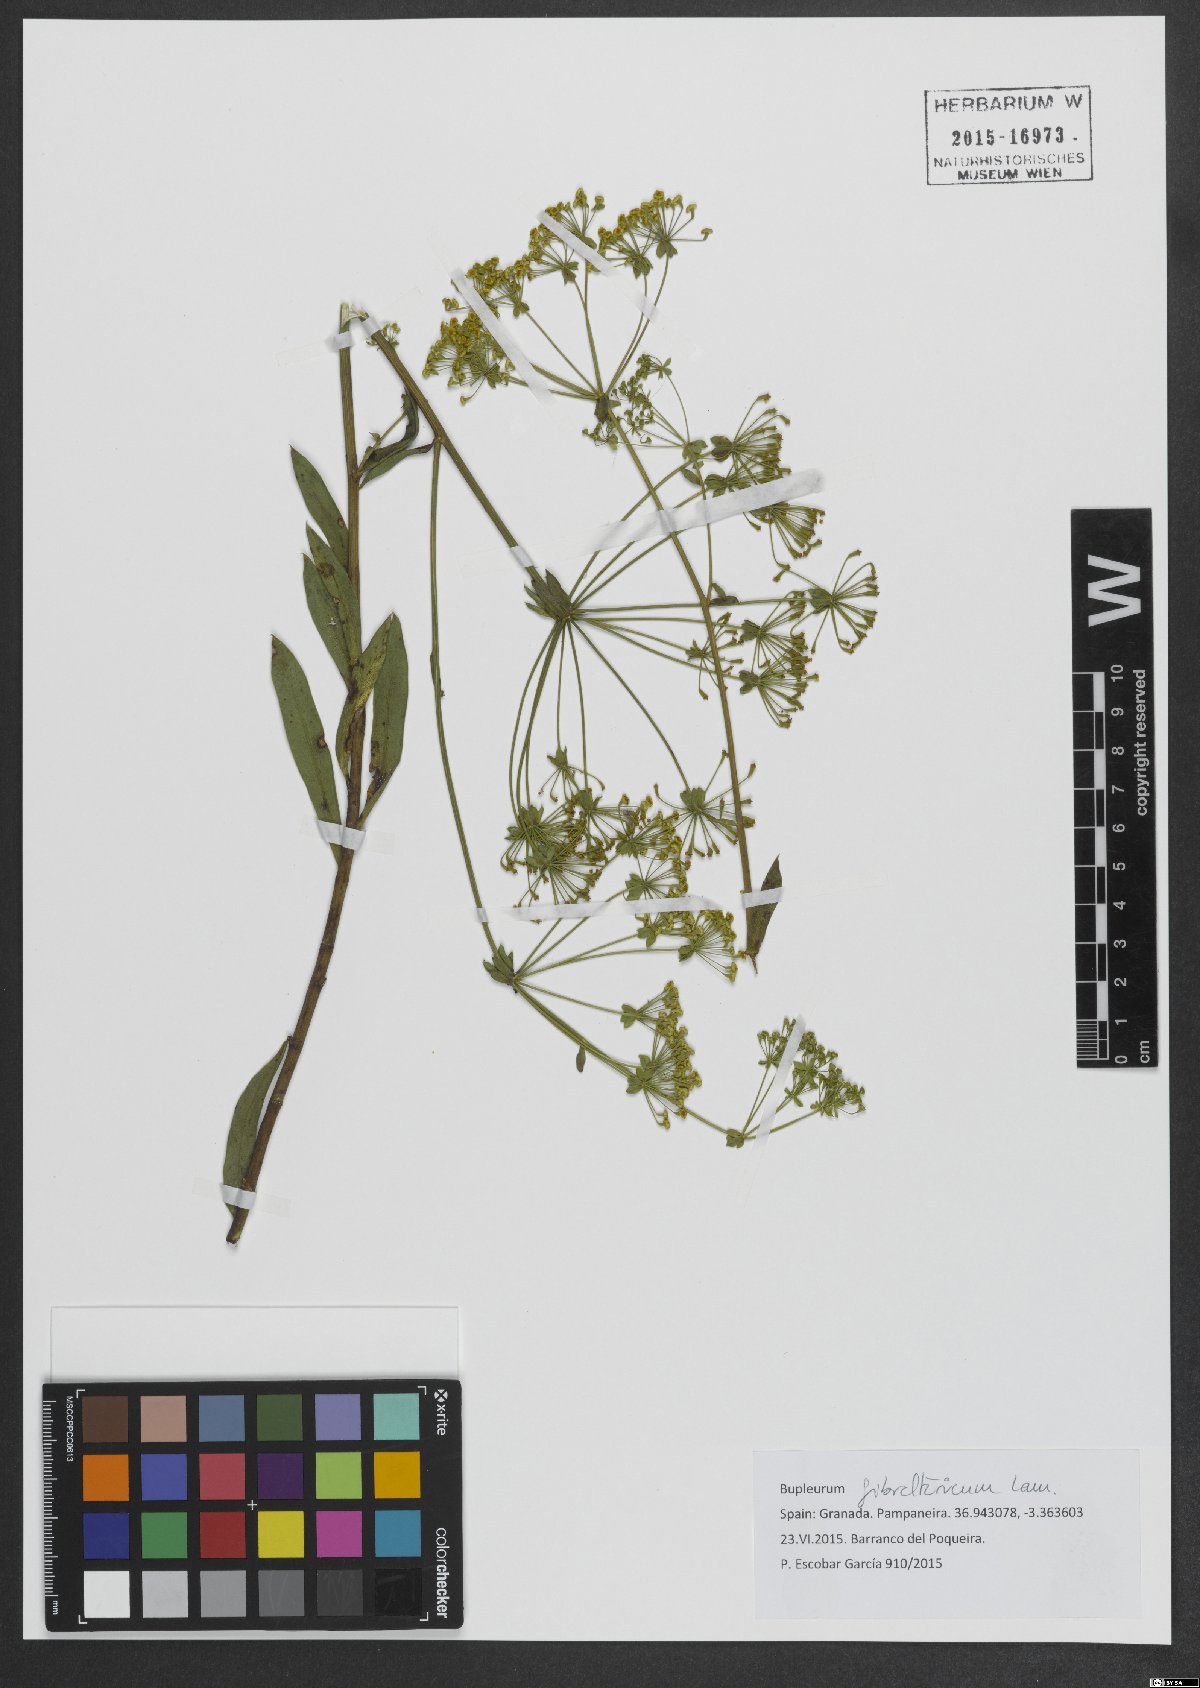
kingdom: Plantae
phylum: Tracheophyta
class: Magnoliopsida
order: Apiales
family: Apiaceae
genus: Bupleurum
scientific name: Bupleurum gibraltaricum
